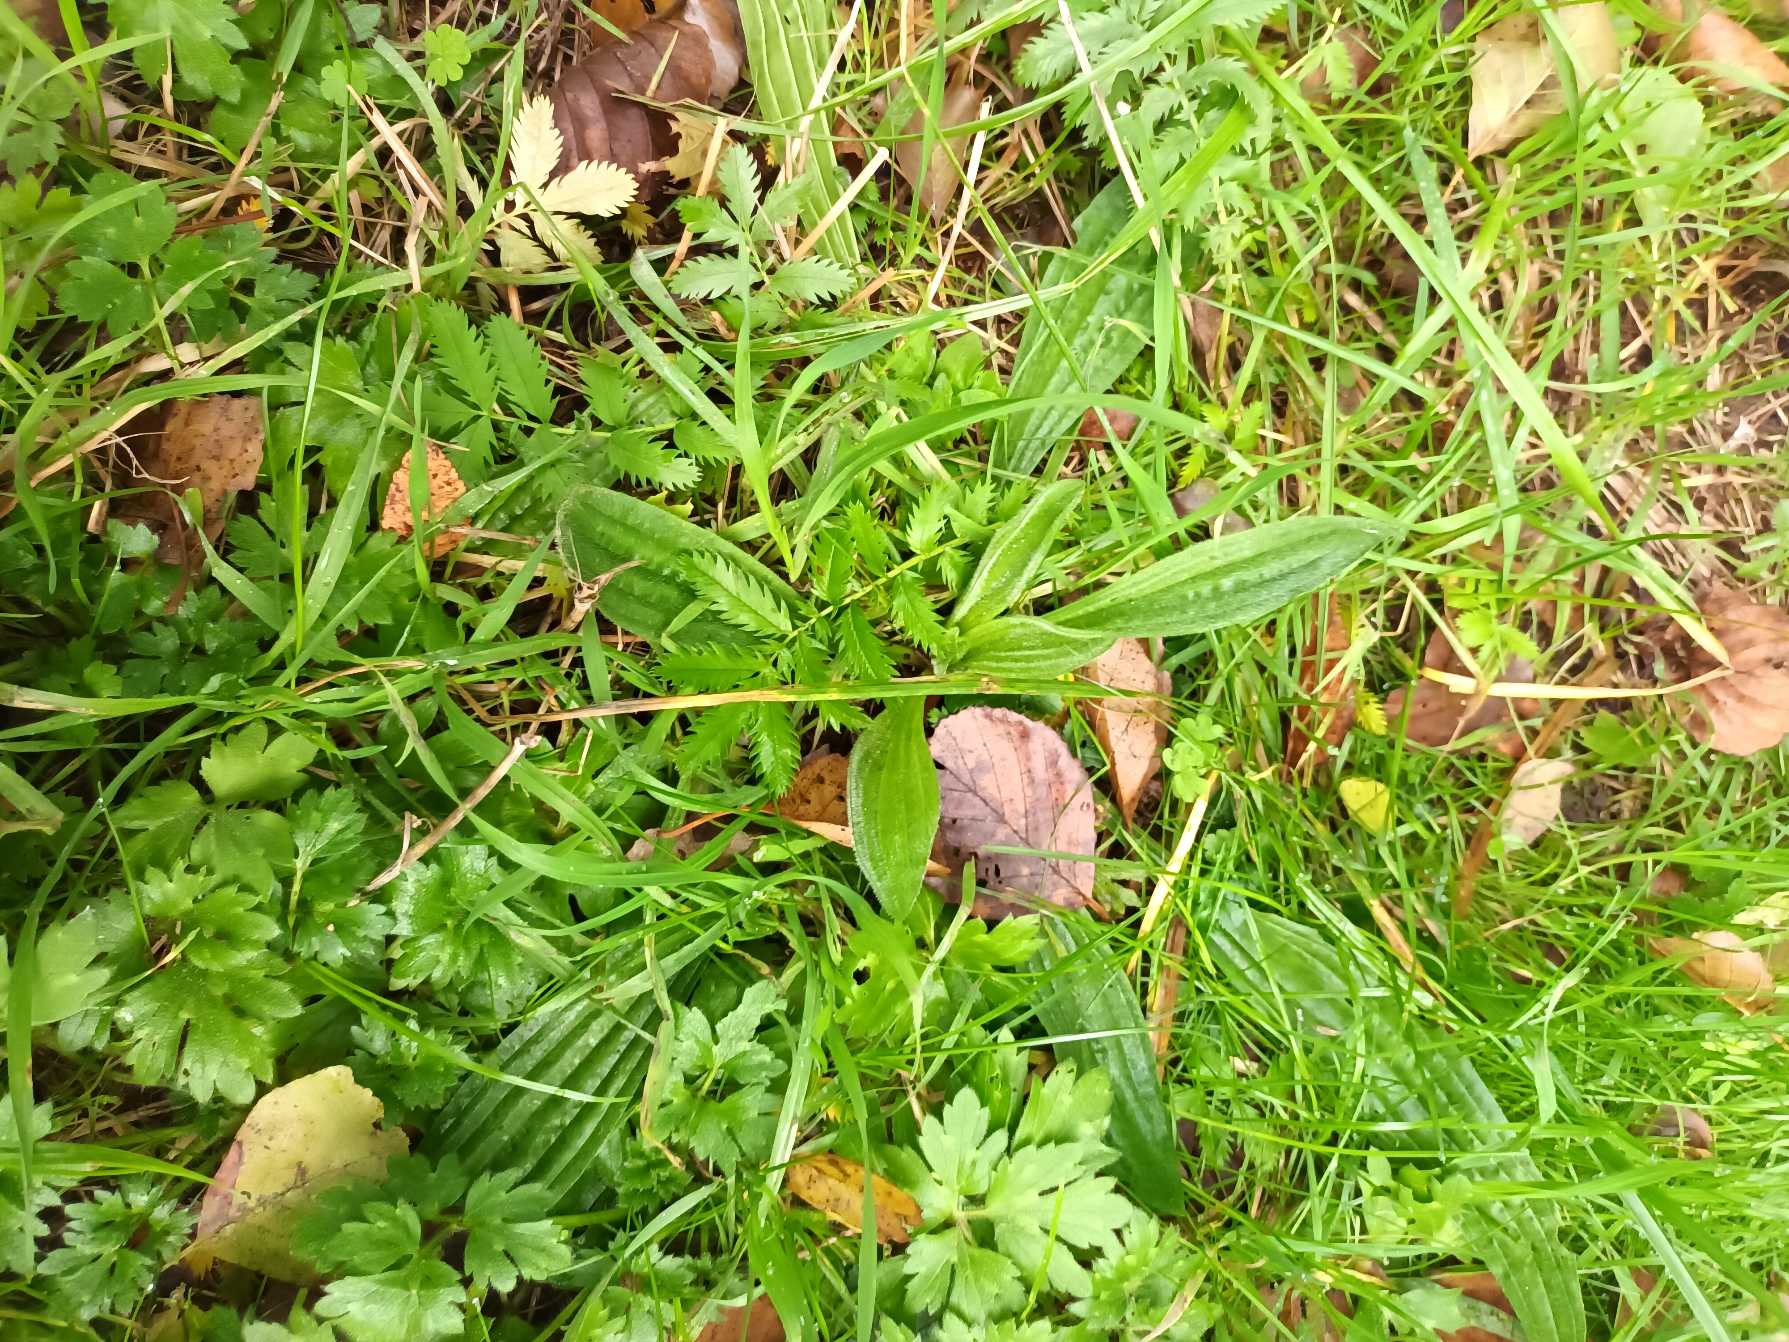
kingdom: Plantae
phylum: Tracheophyta
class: Magnoliopsida
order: Lamiales
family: Plantaginaceae
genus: Plantago
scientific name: Plantago lanceolata
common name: Lancet-vejbred
